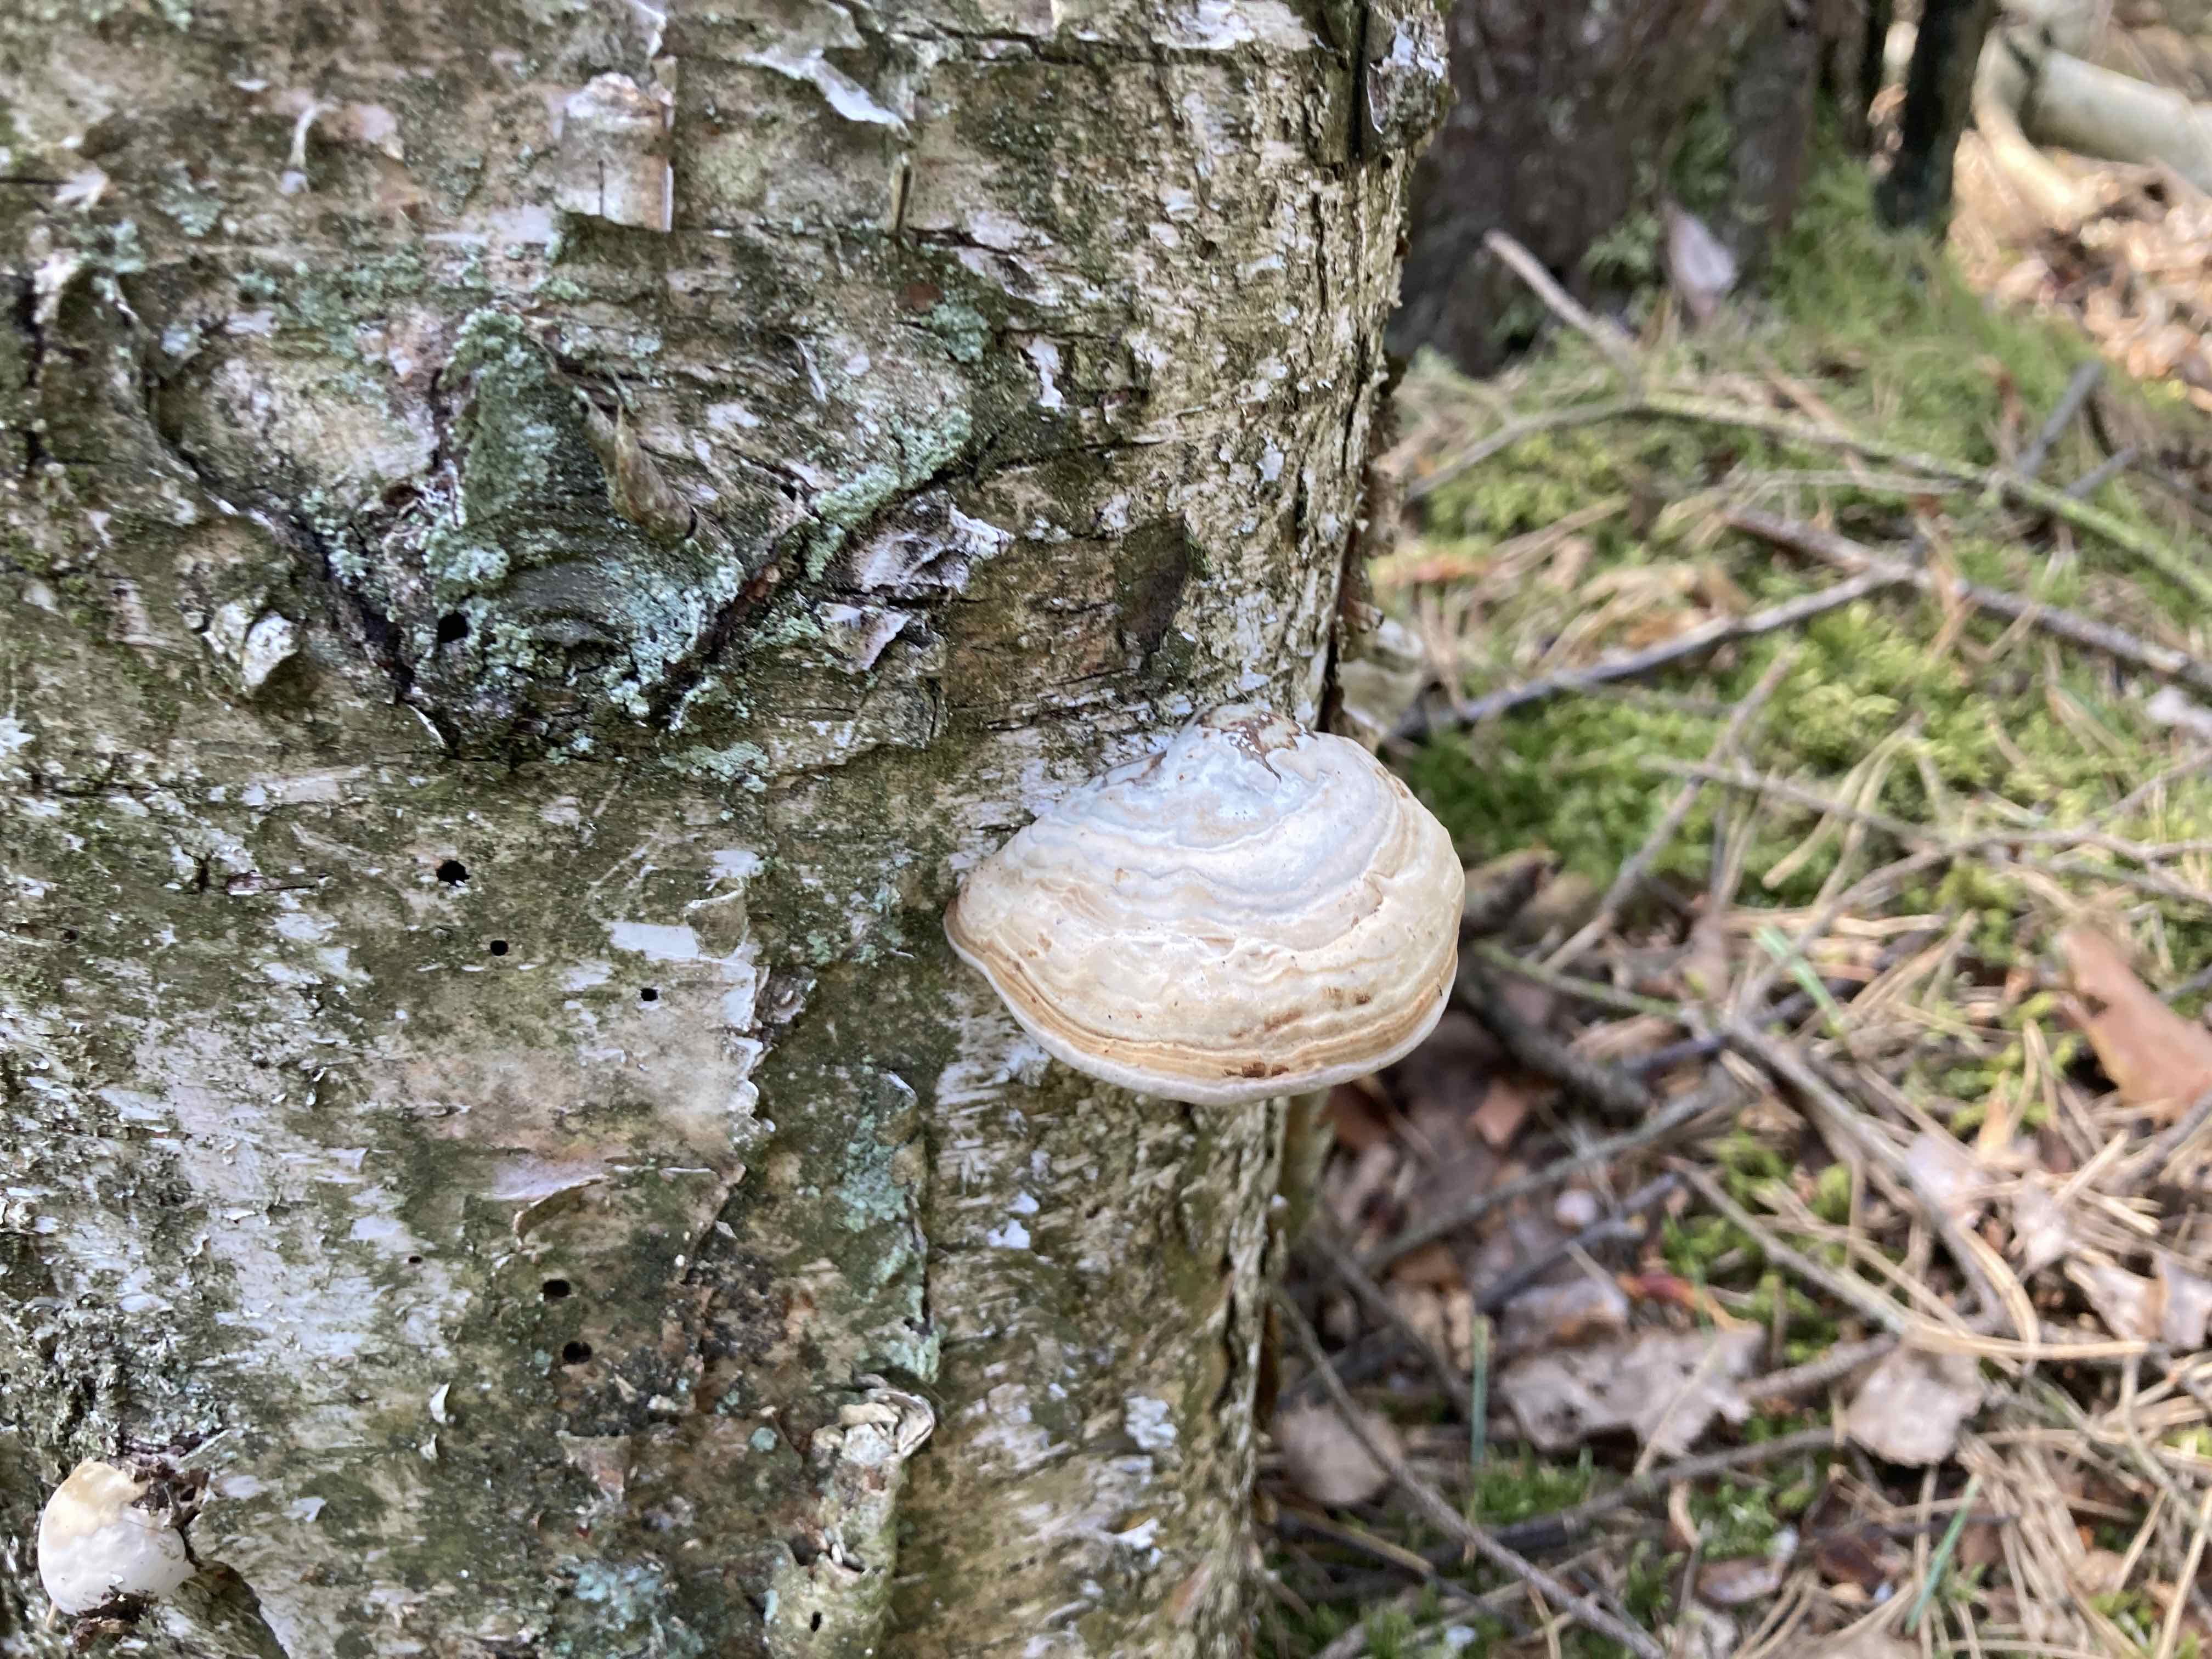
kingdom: Fungi
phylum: Basidiomycota
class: Agaricomycetes
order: Polyporales
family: Polyporaceae
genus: Fomes
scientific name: Fomes fomentarius
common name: tøndersvamp
